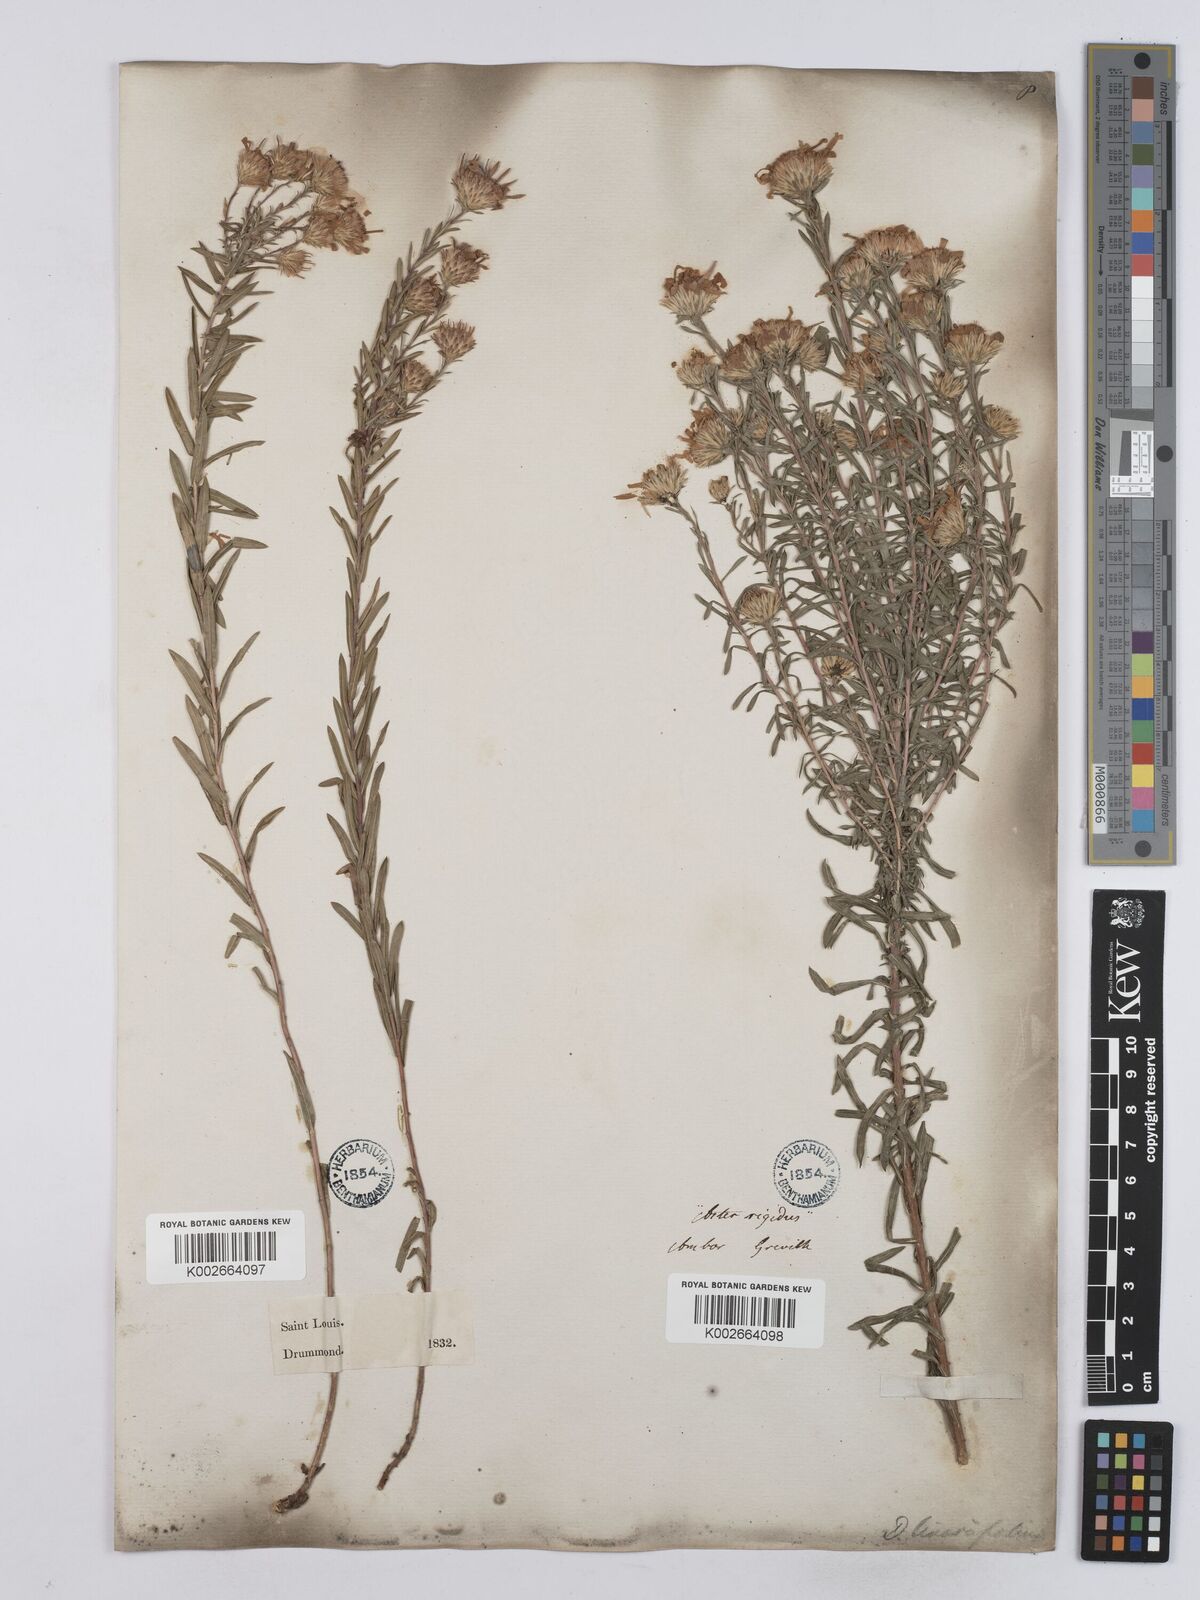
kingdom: Plantae
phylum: Tracheophyta
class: Magnoliopsida
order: Asterales
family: Asteraceae
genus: Ionactis
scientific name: Ionactis linariifolia
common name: Flax-leaf aster
